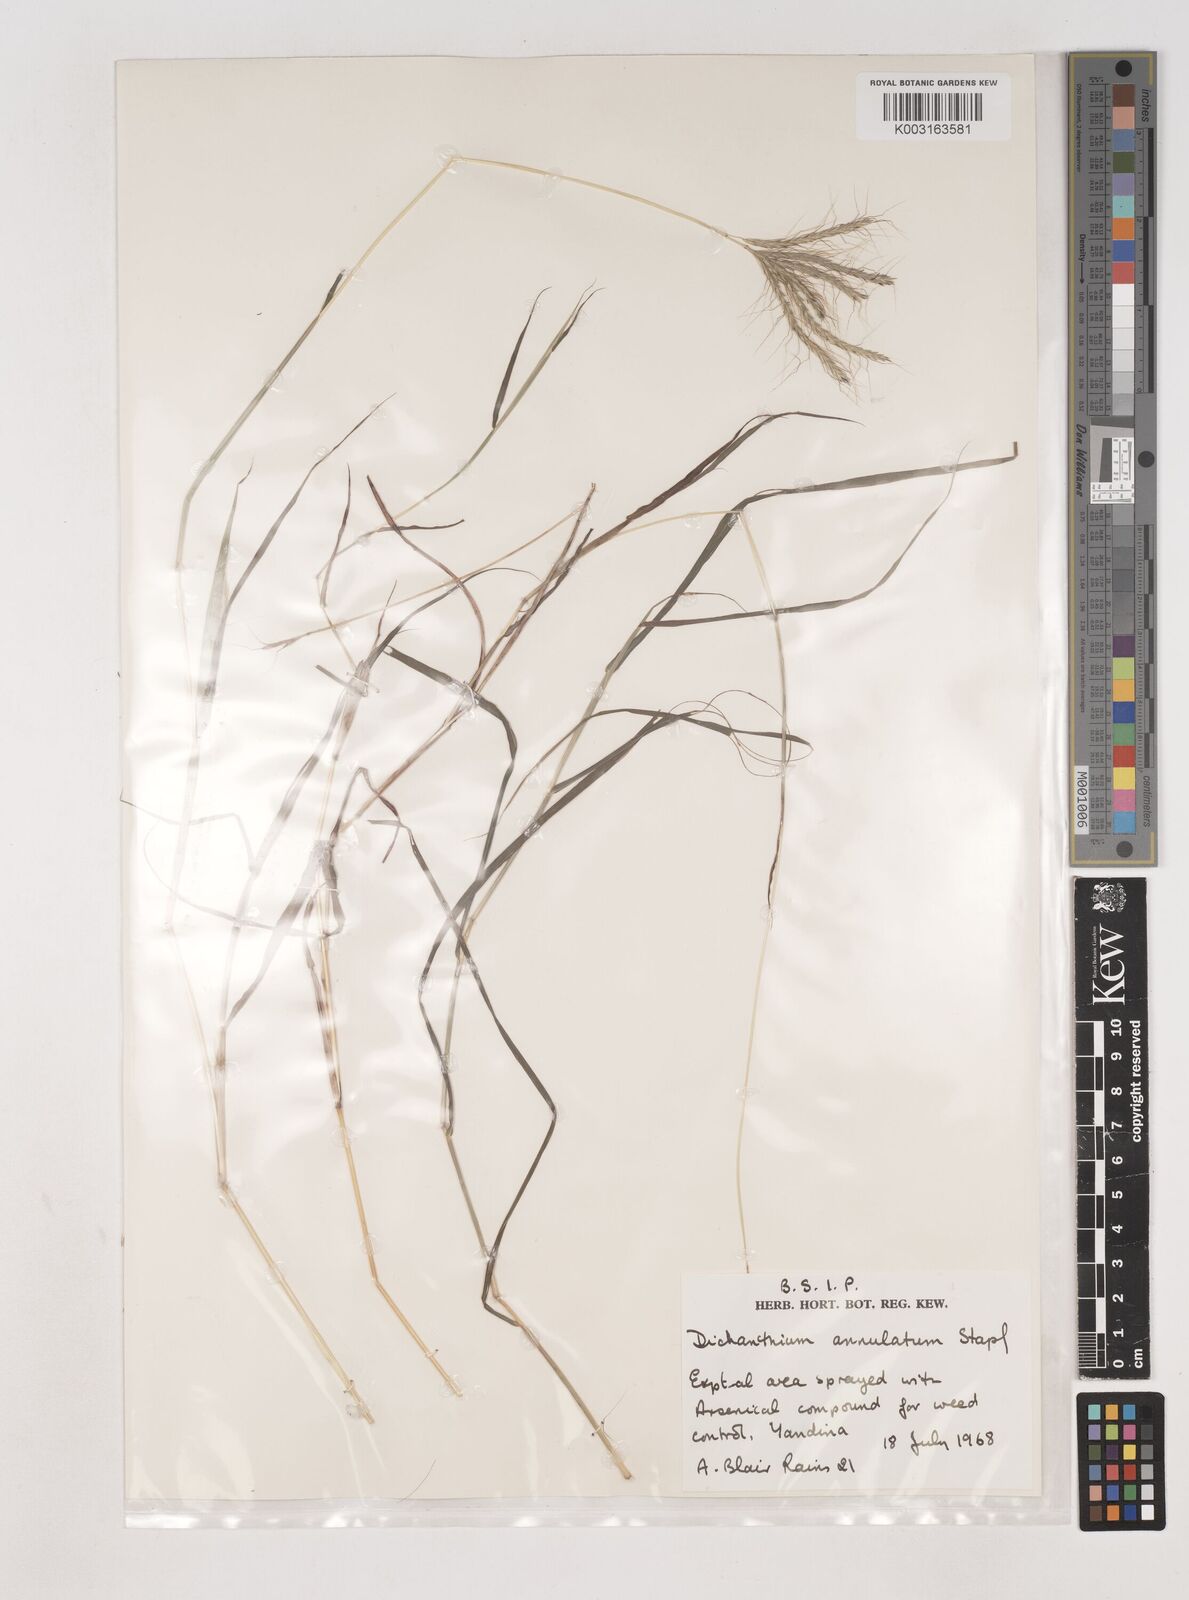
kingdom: Plantae
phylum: Tracheophyta
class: Liliopsida
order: Poales
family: Poaceae
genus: Dichanthium
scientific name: Dichanthium annulatum
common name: Kleberg's bluestem
